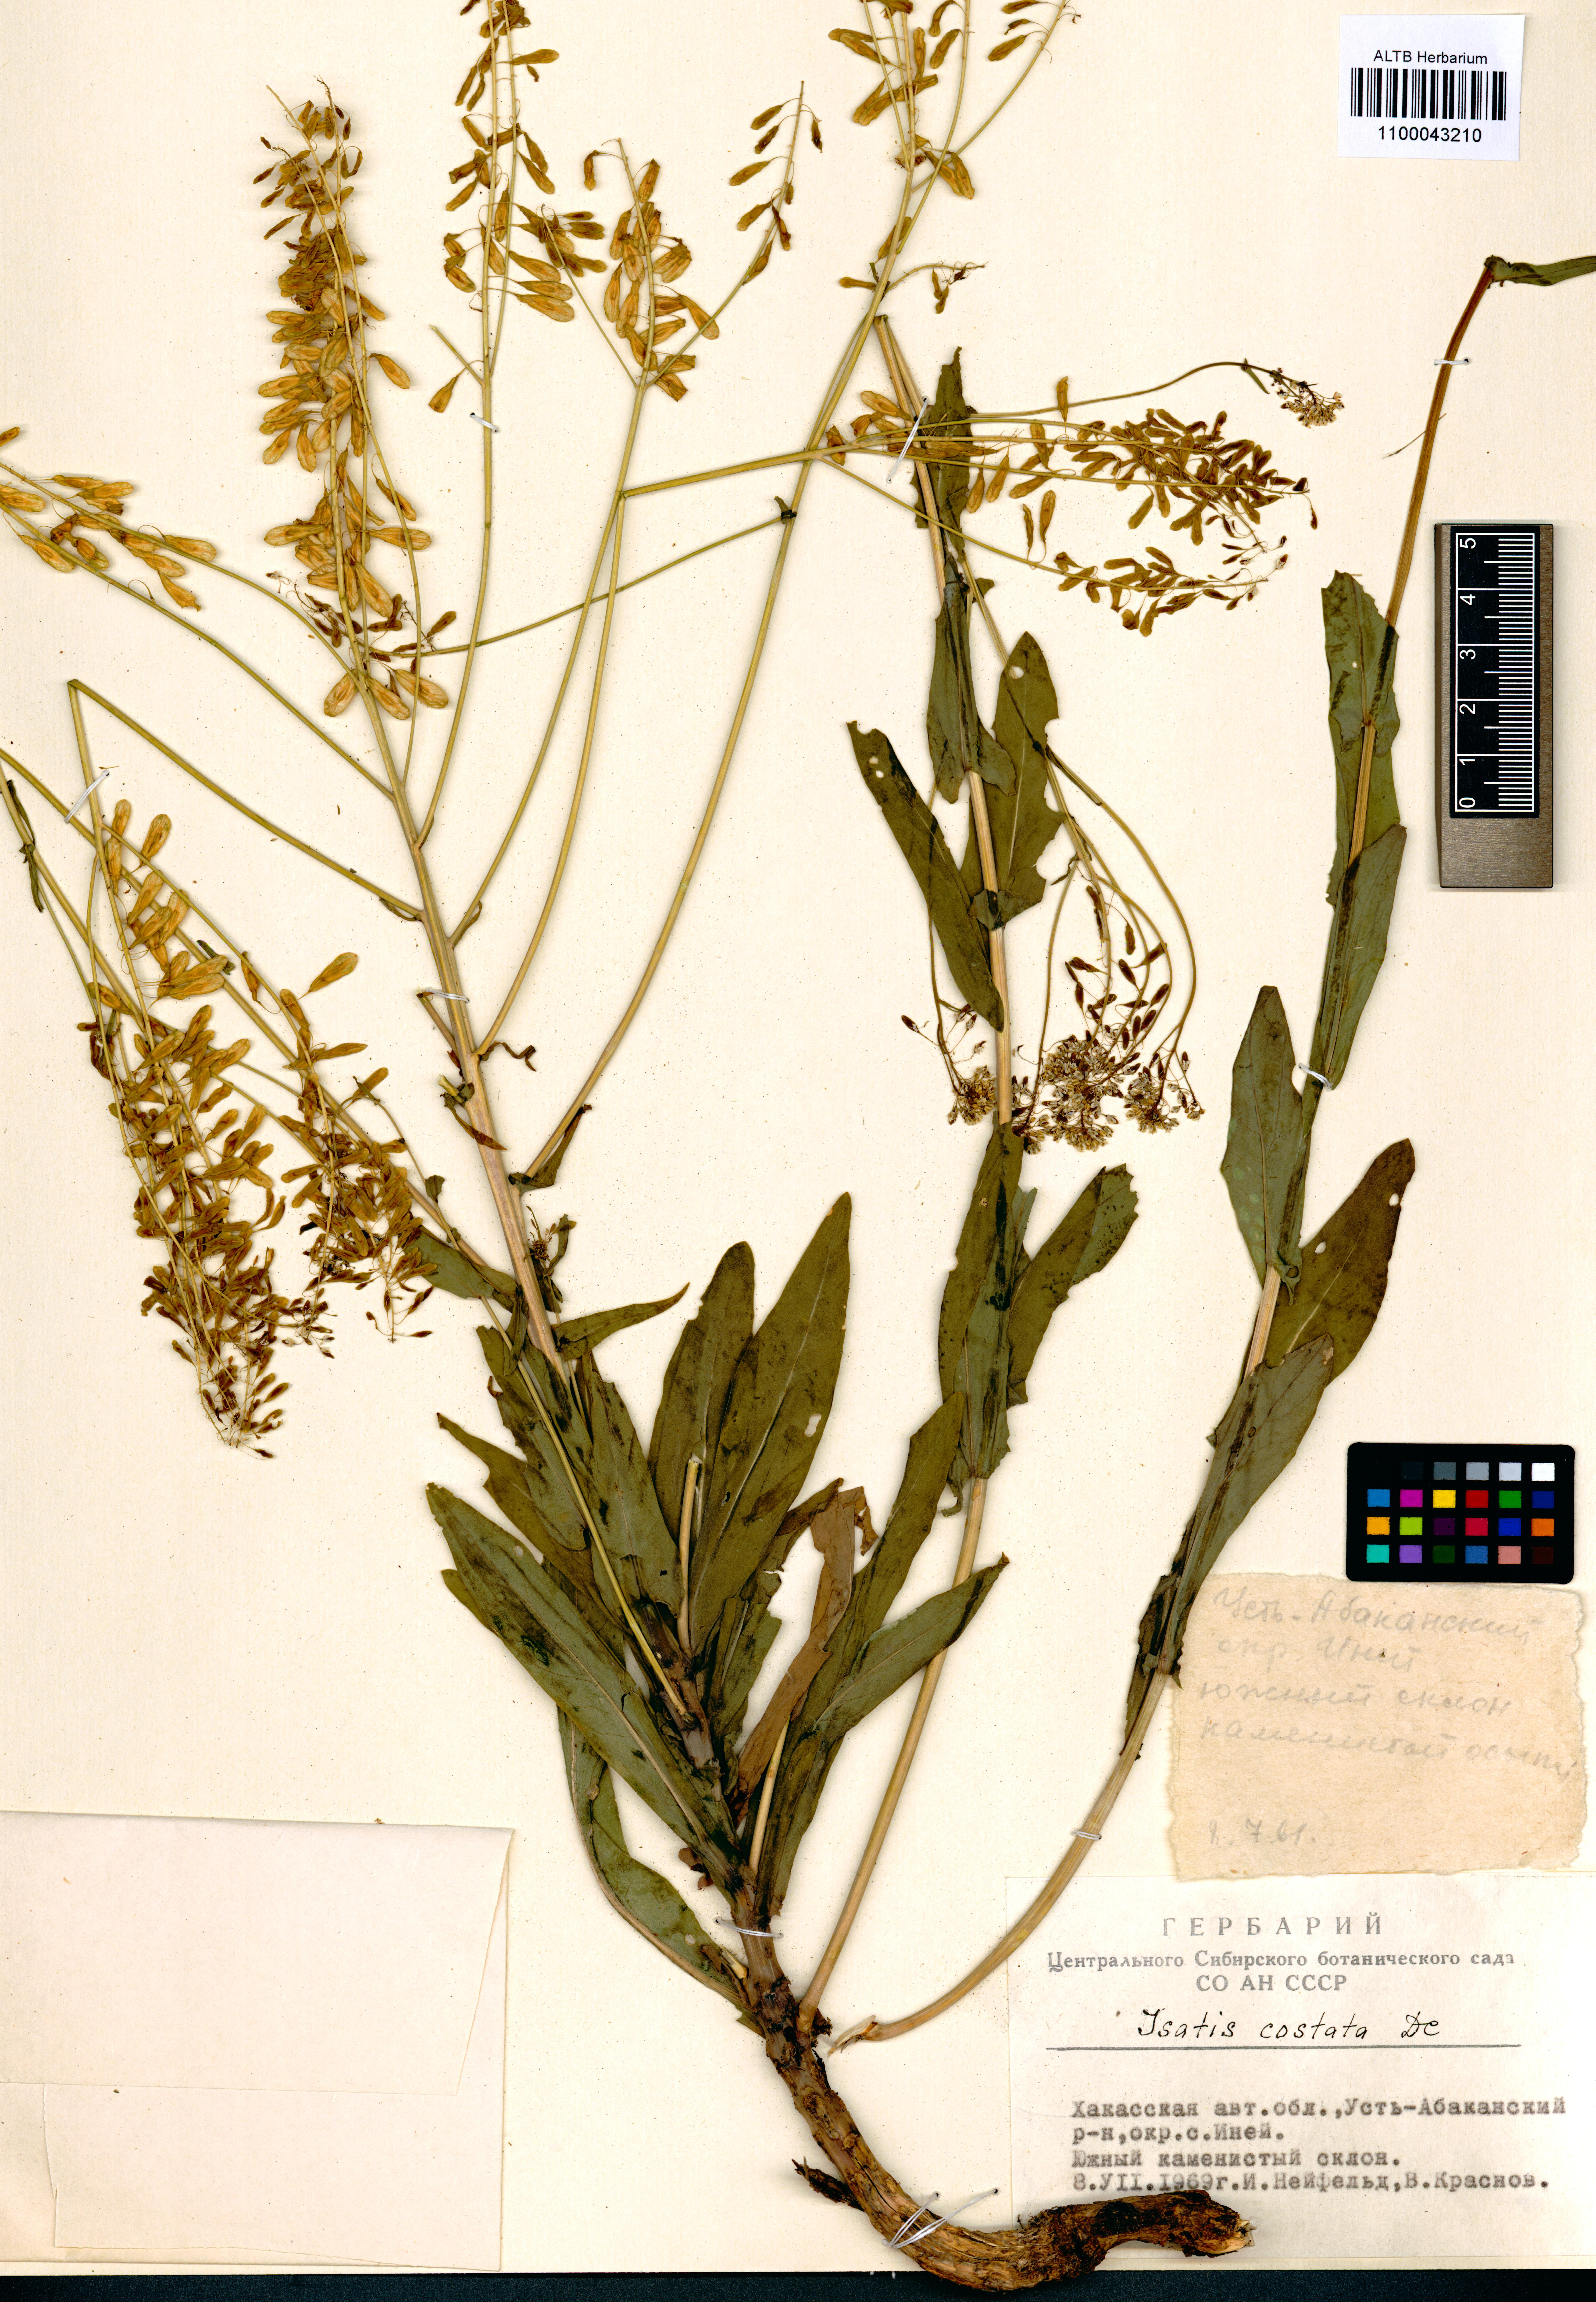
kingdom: Plantae
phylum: Tracheophyta
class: Magnoliopsida
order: Brassicales
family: Brassicaceae
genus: Isatis
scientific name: Isatis costata
